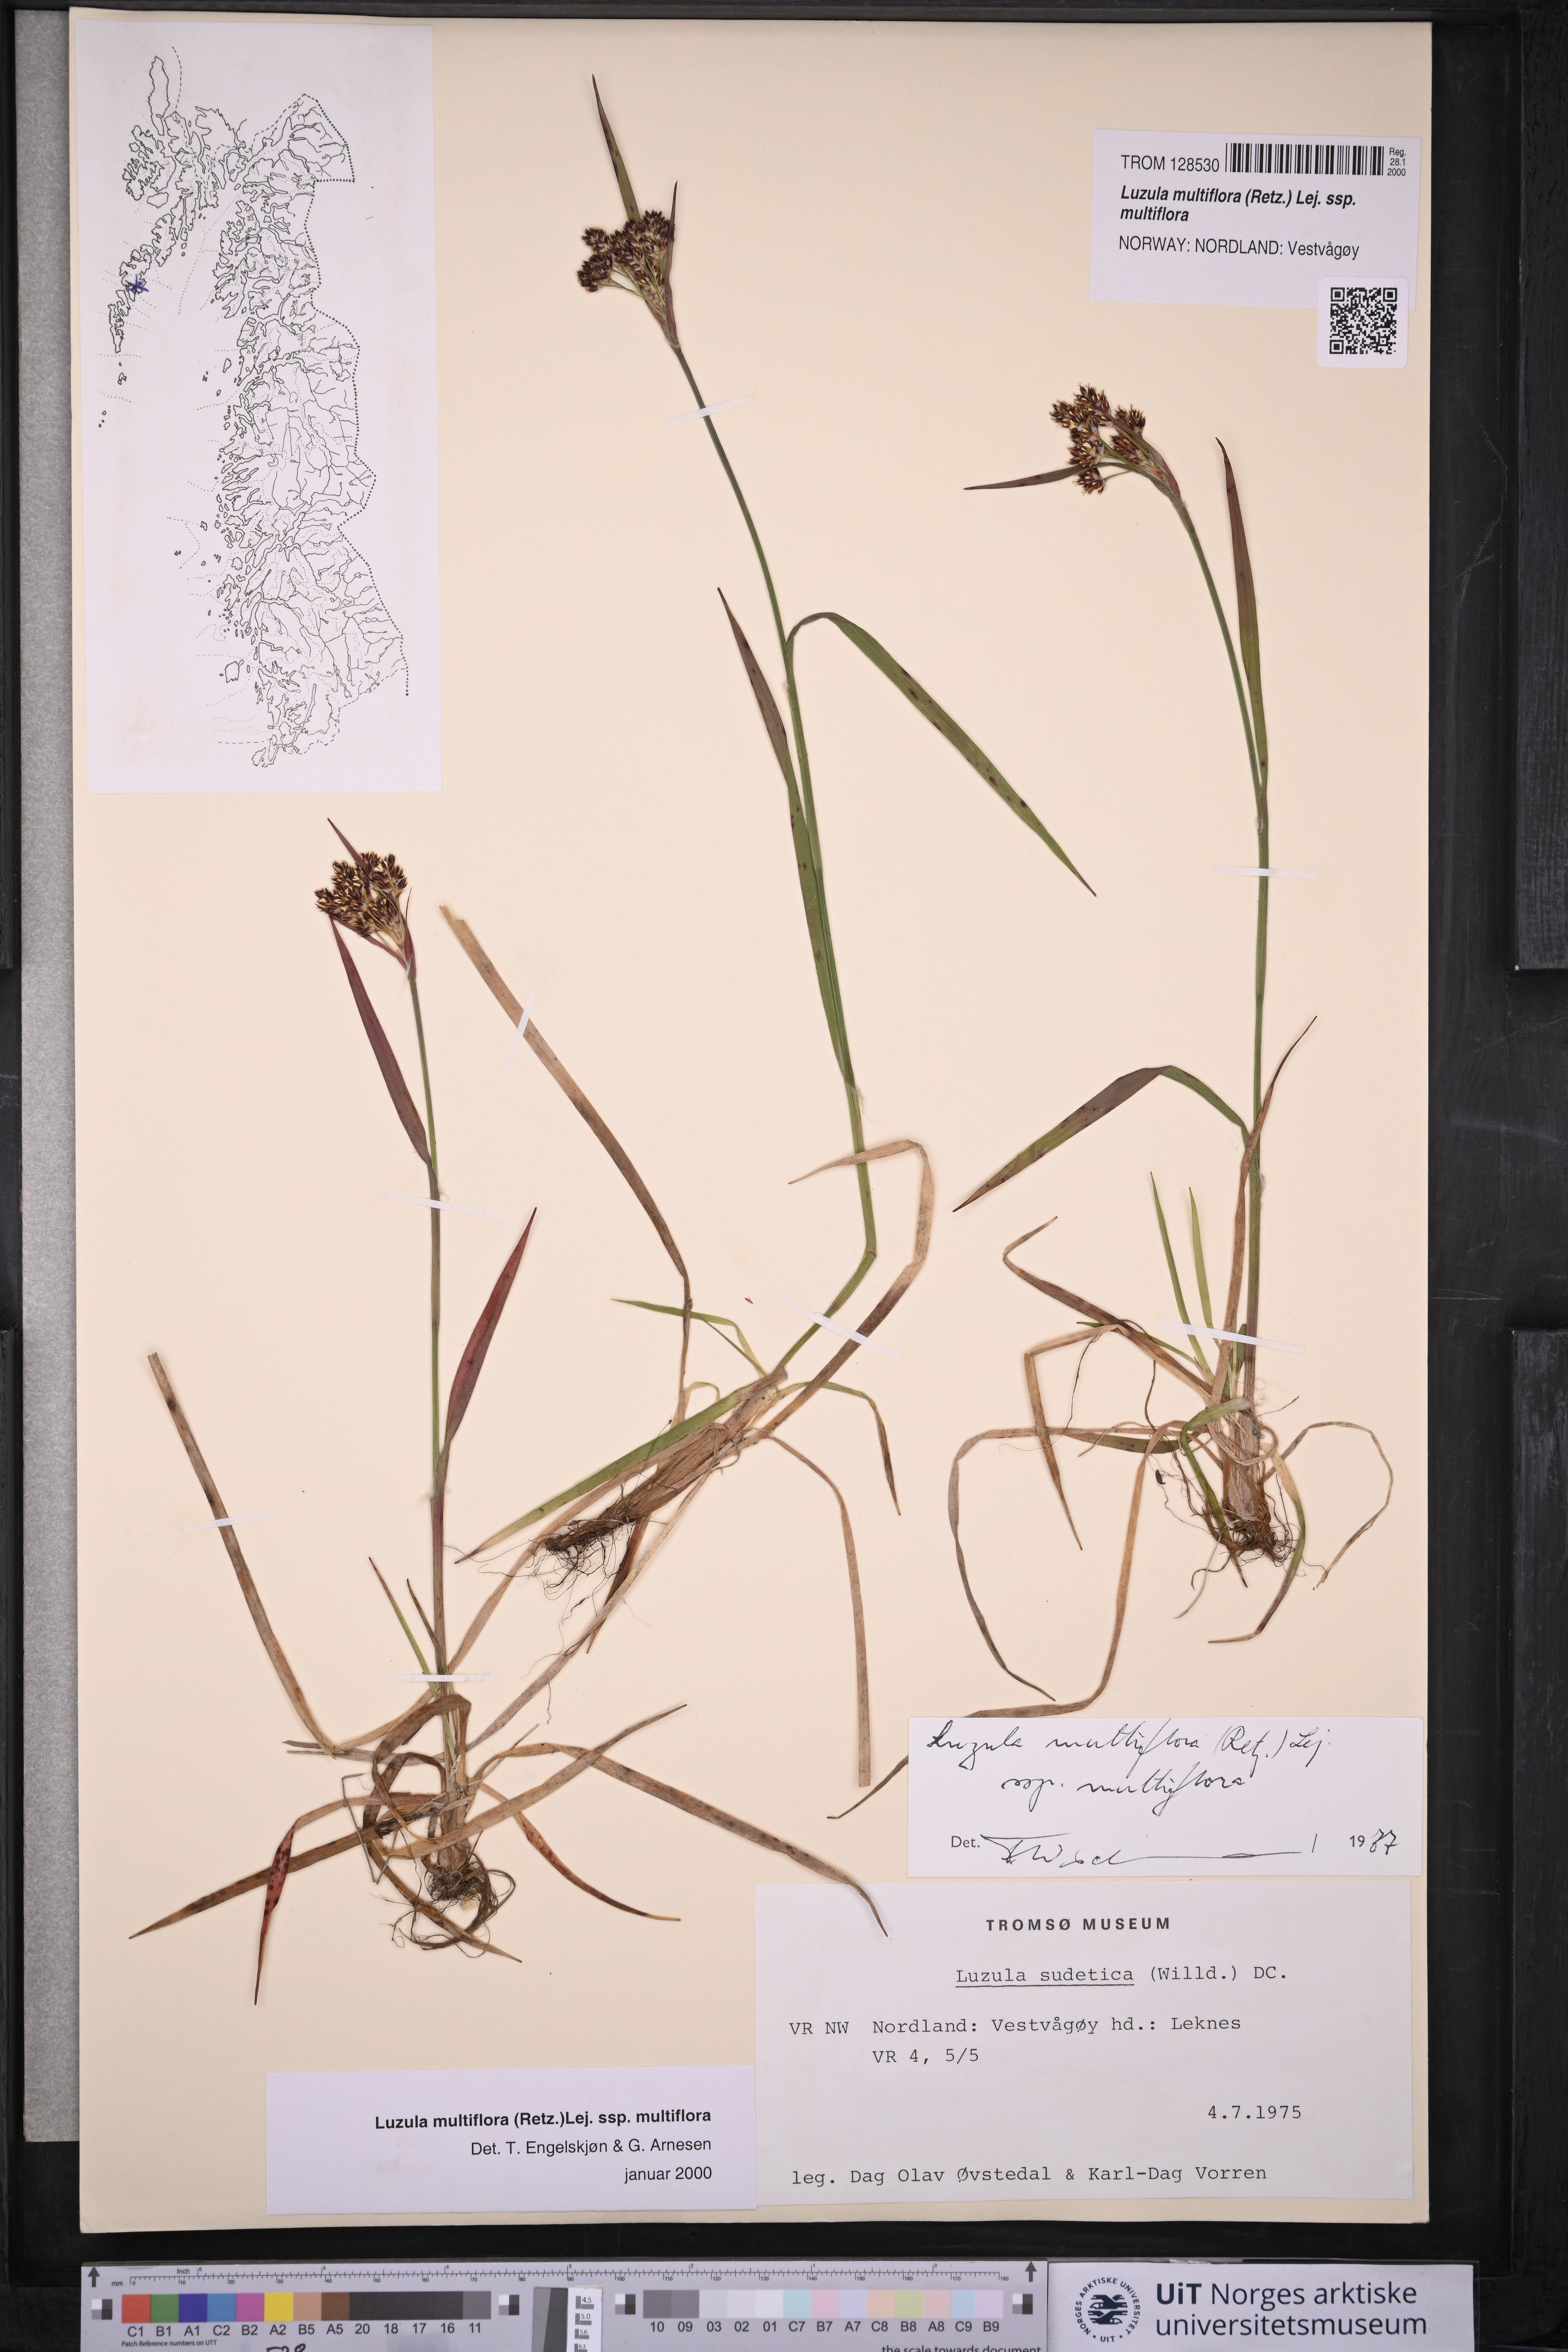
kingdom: Plantae
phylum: Tracheophyta
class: Liliopsida
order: Poales
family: Juncaceae
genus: Luzula
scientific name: Luzula multiflora
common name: Heath wood-rush
